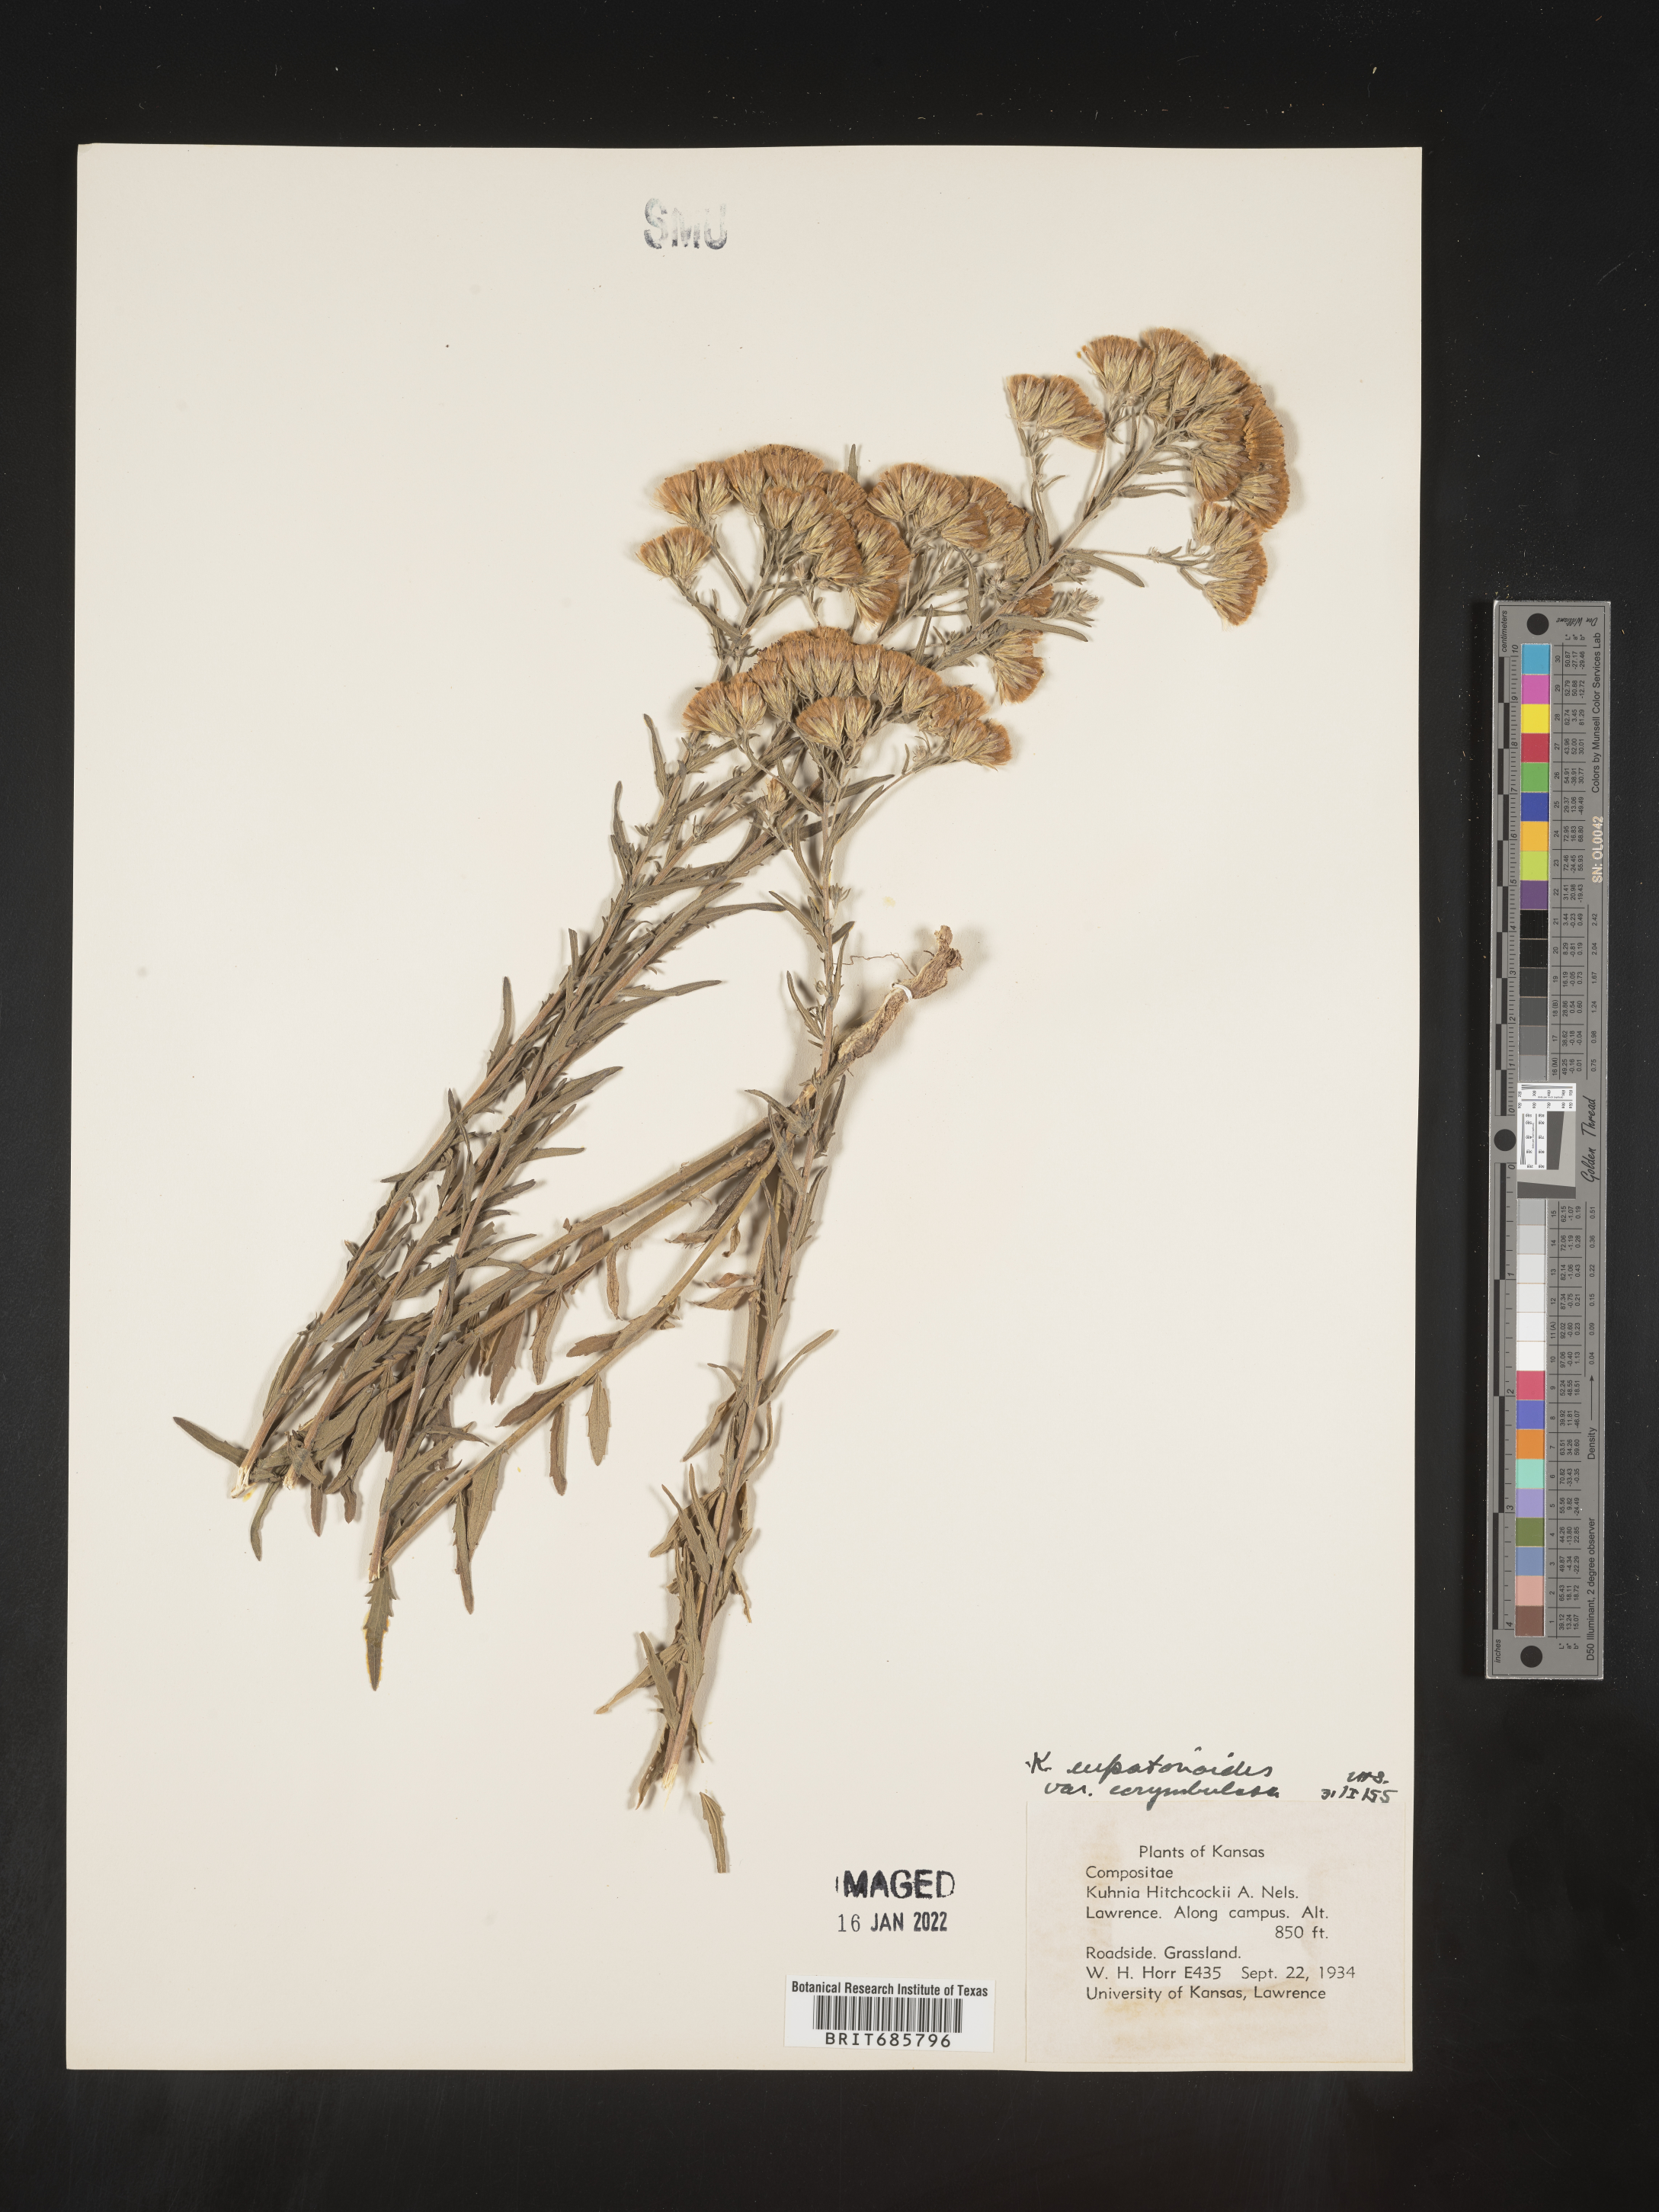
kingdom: Plantae
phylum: Tracheophyta
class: Magnoliopsida
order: Asterales
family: Asteraceae
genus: Brickellia
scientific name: Brickellia eupatorioides
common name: False boneset
